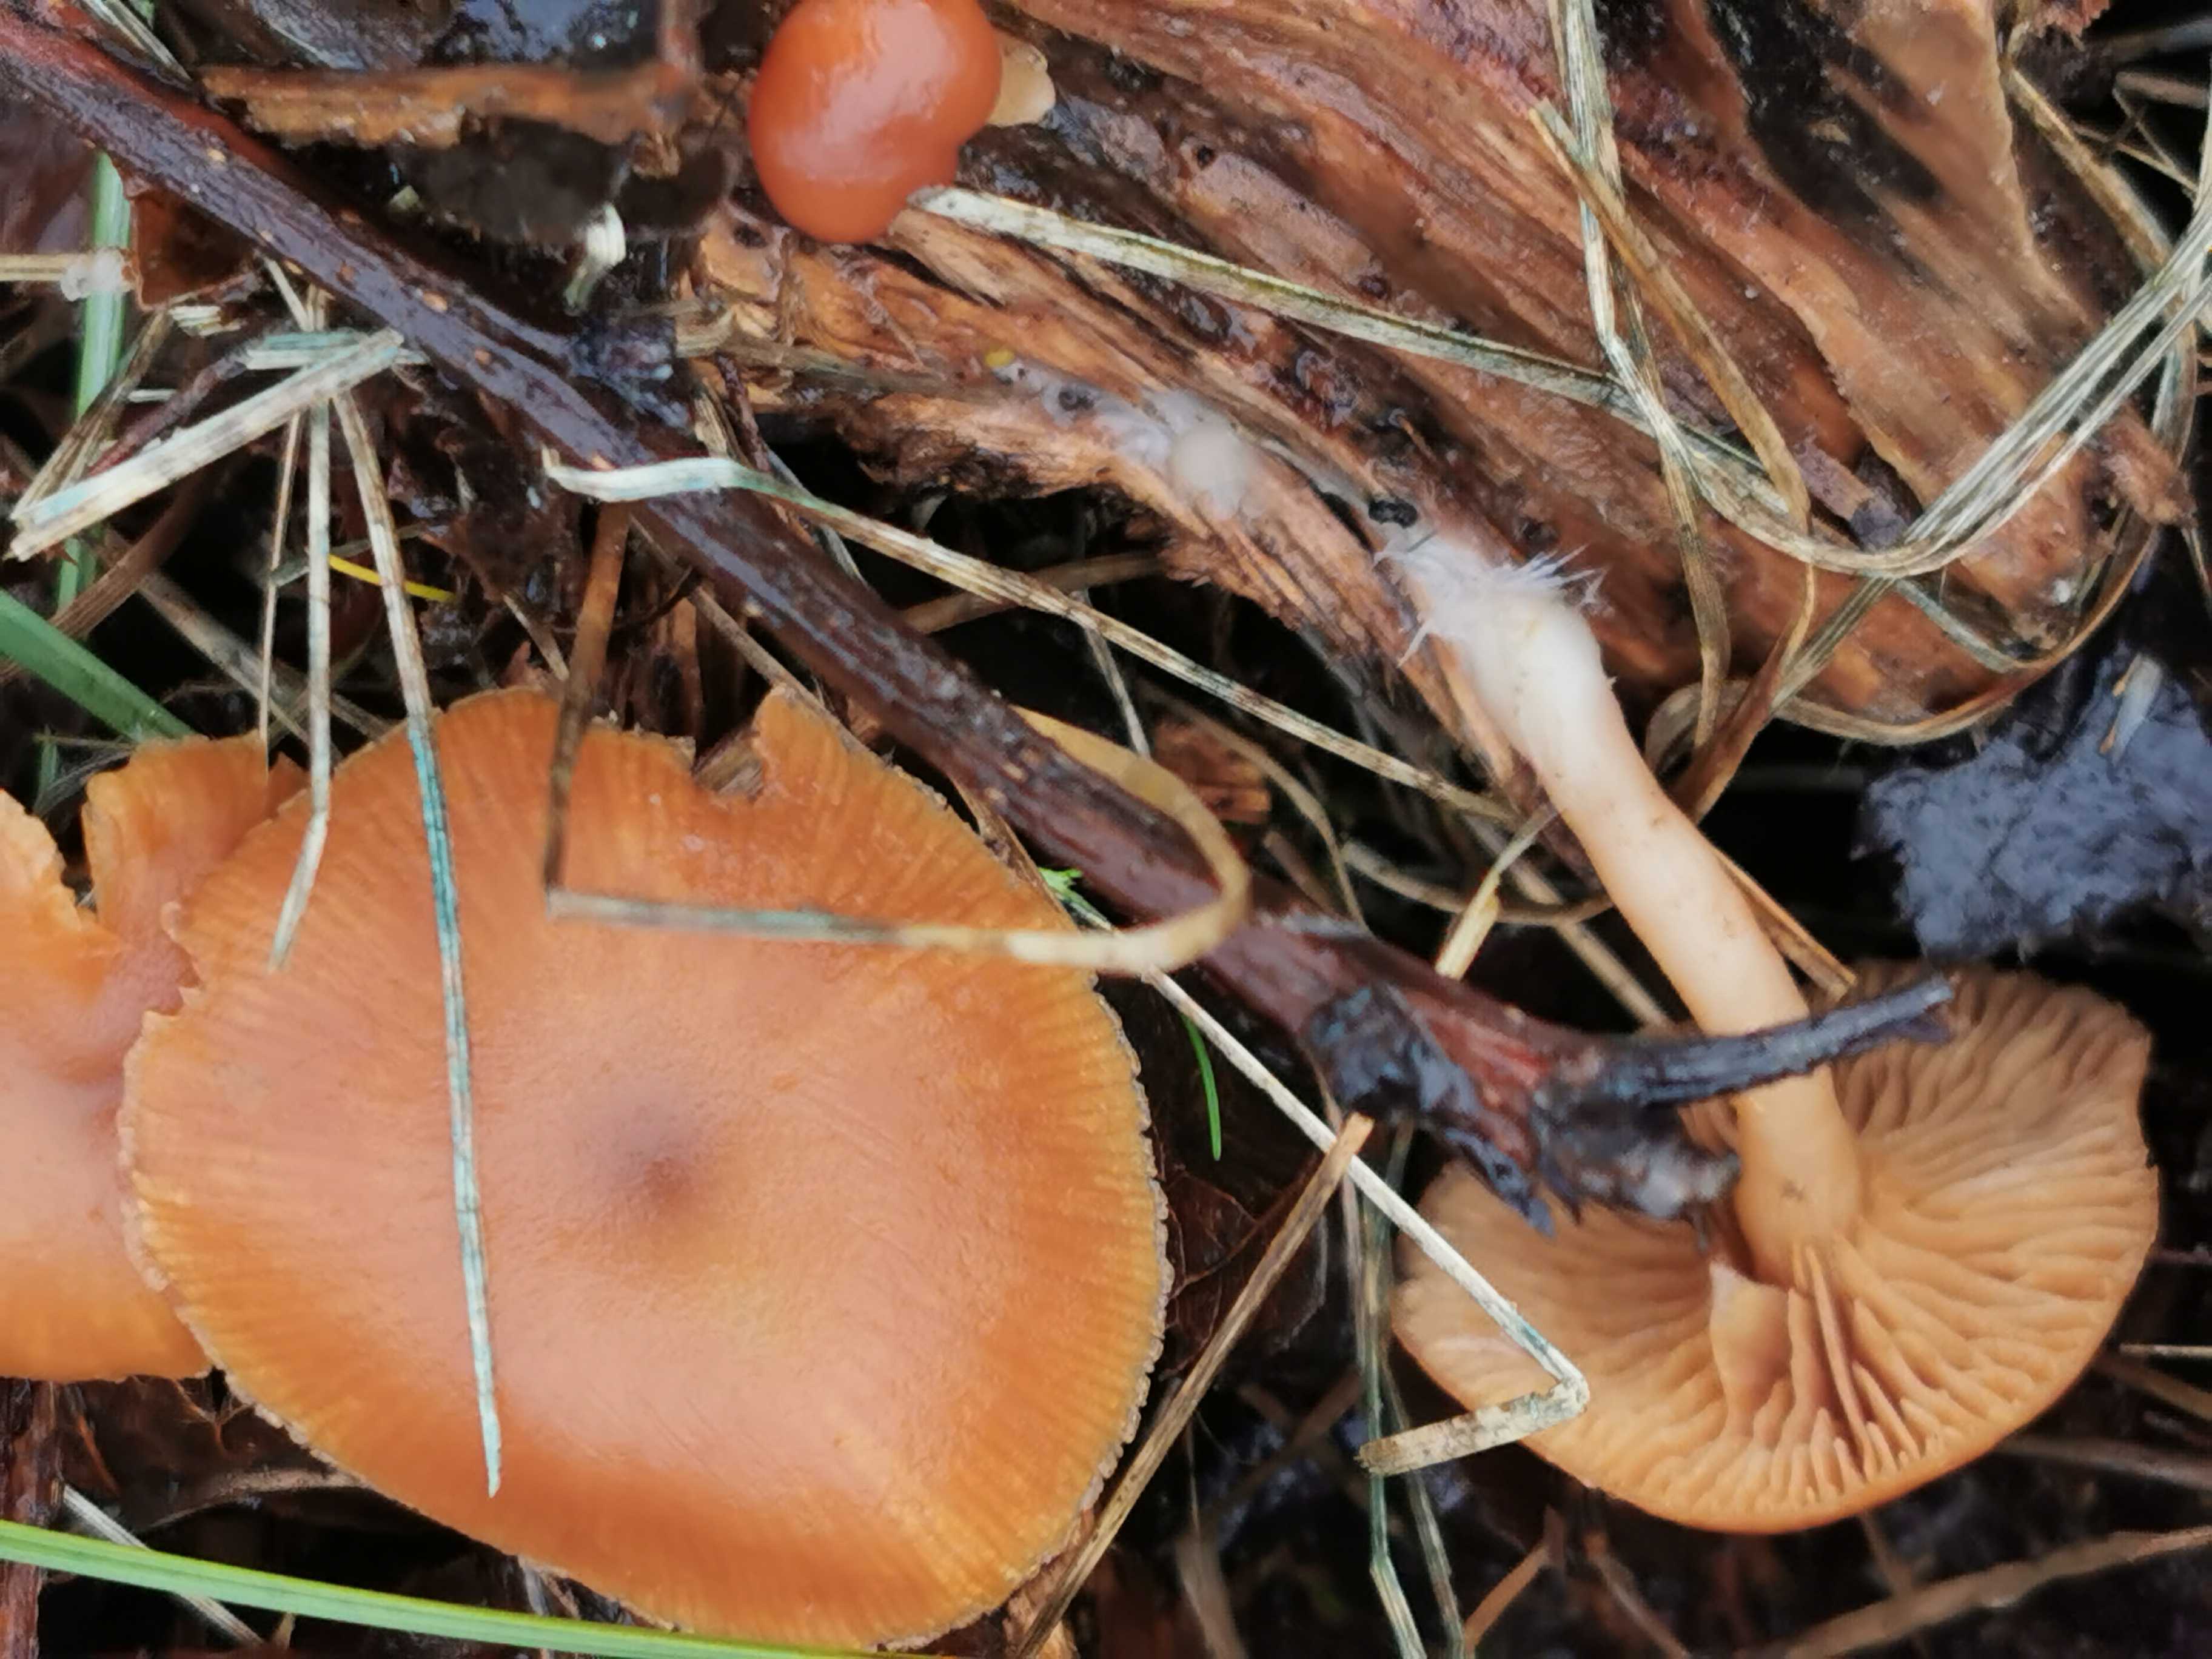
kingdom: Fungi
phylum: Basidiomycota
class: Agaricomycetes
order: Agaricales
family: Tubariaceae
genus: Tubaria
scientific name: Tubaria furfuracea
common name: kliddet fnughat
